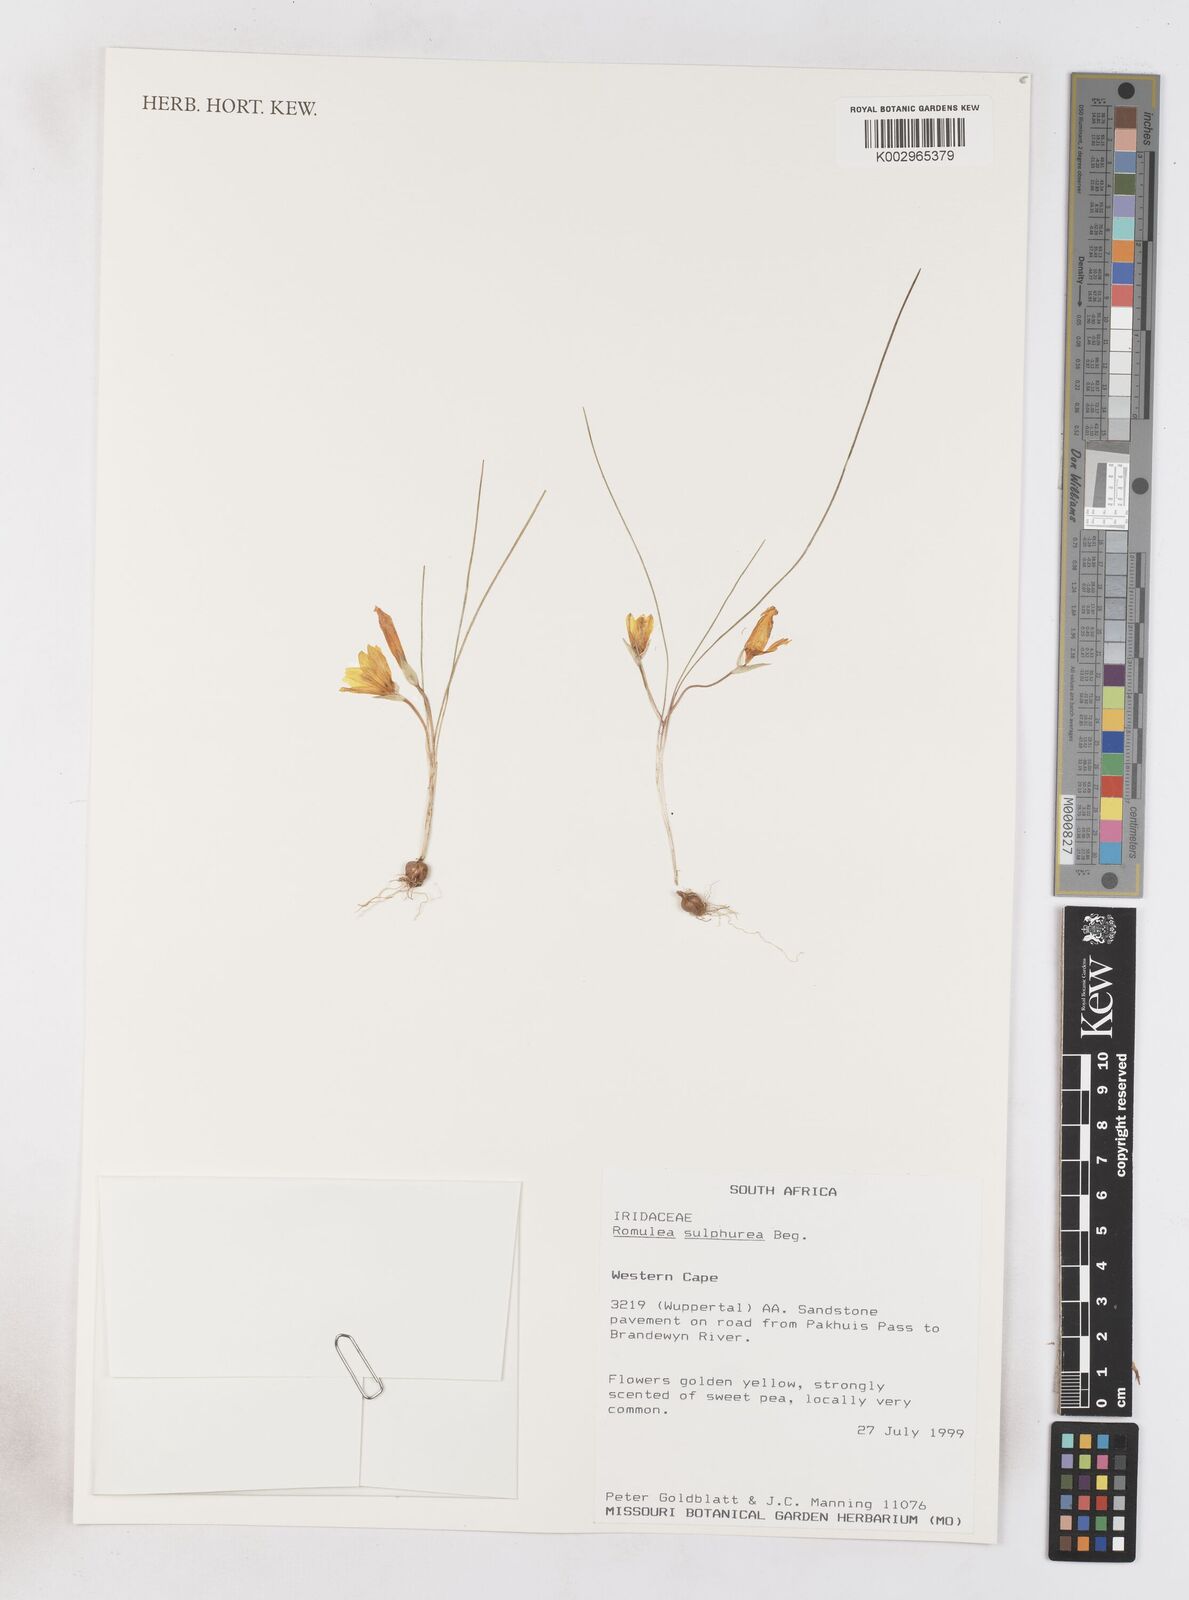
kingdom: Plantae
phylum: Tracheophyta
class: Liliopsida
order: Asparagales
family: Iridaceae
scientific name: Iridaceae
